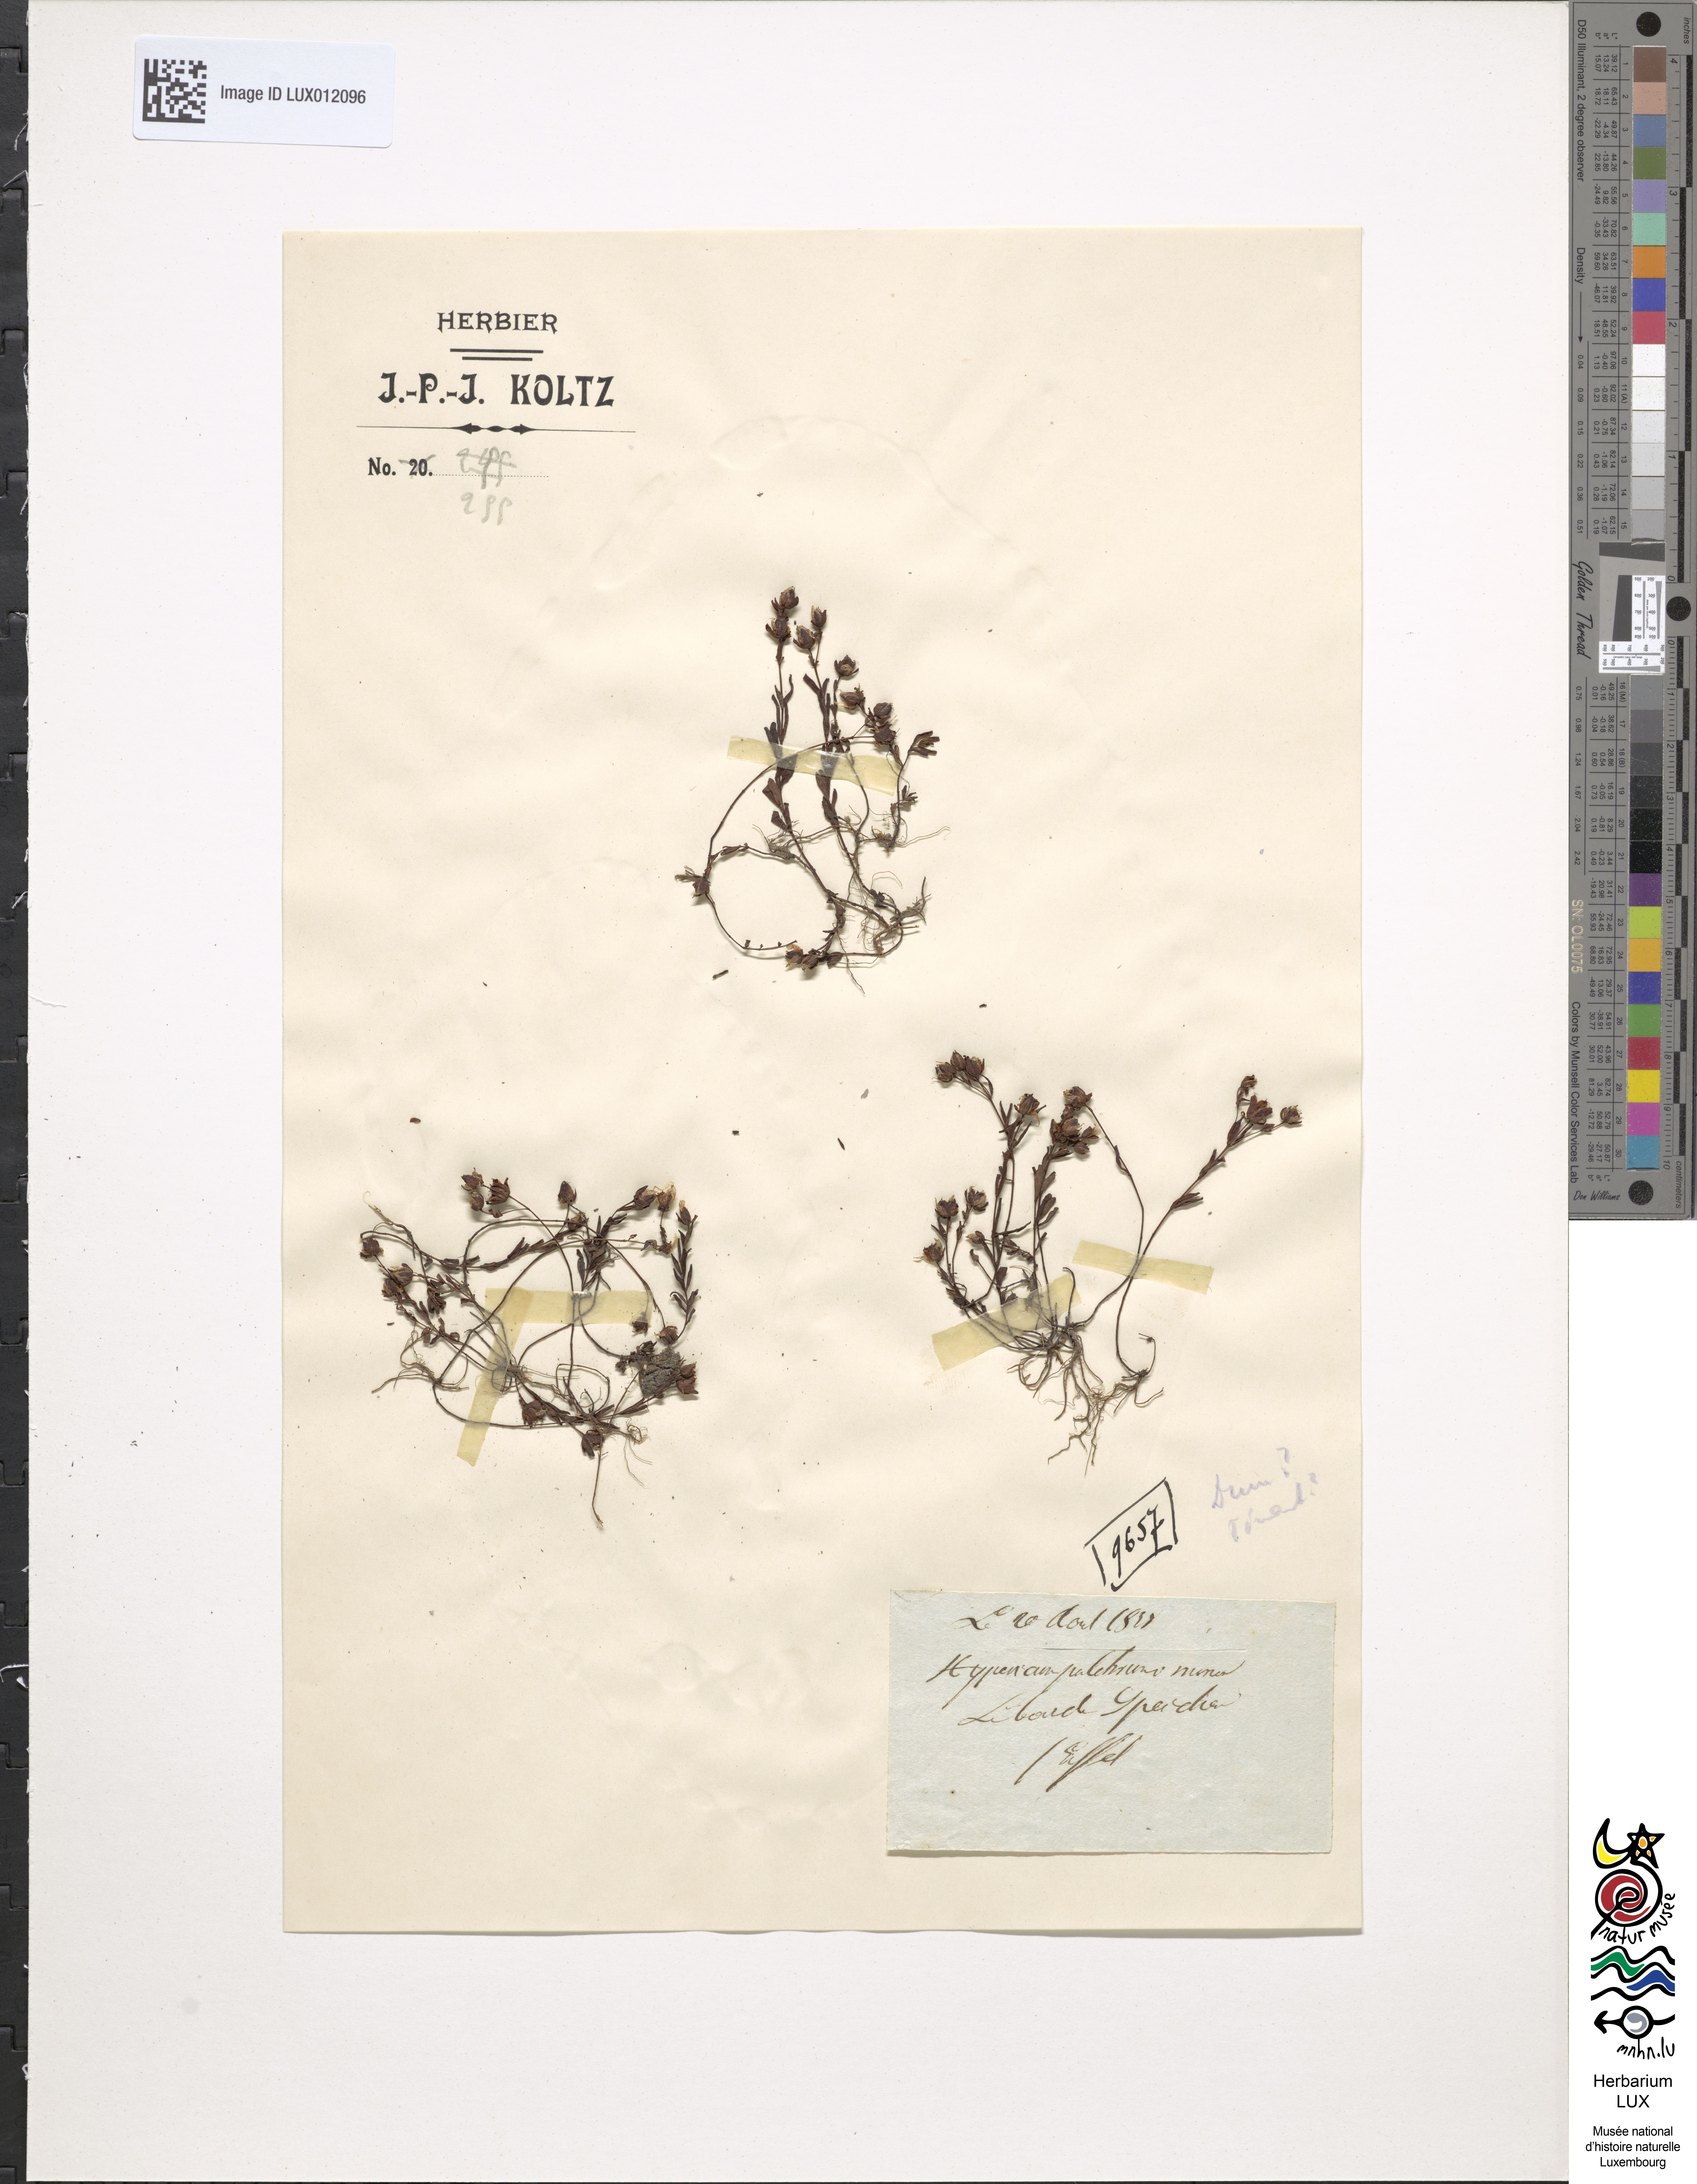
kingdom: Plantae
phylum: Tracheophyta
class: Magnoliopsida
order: Malpighiales
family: Hypericaceae
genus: Hypericum
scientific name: Hypericum pulchrum
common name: Slender st. john's-wort
